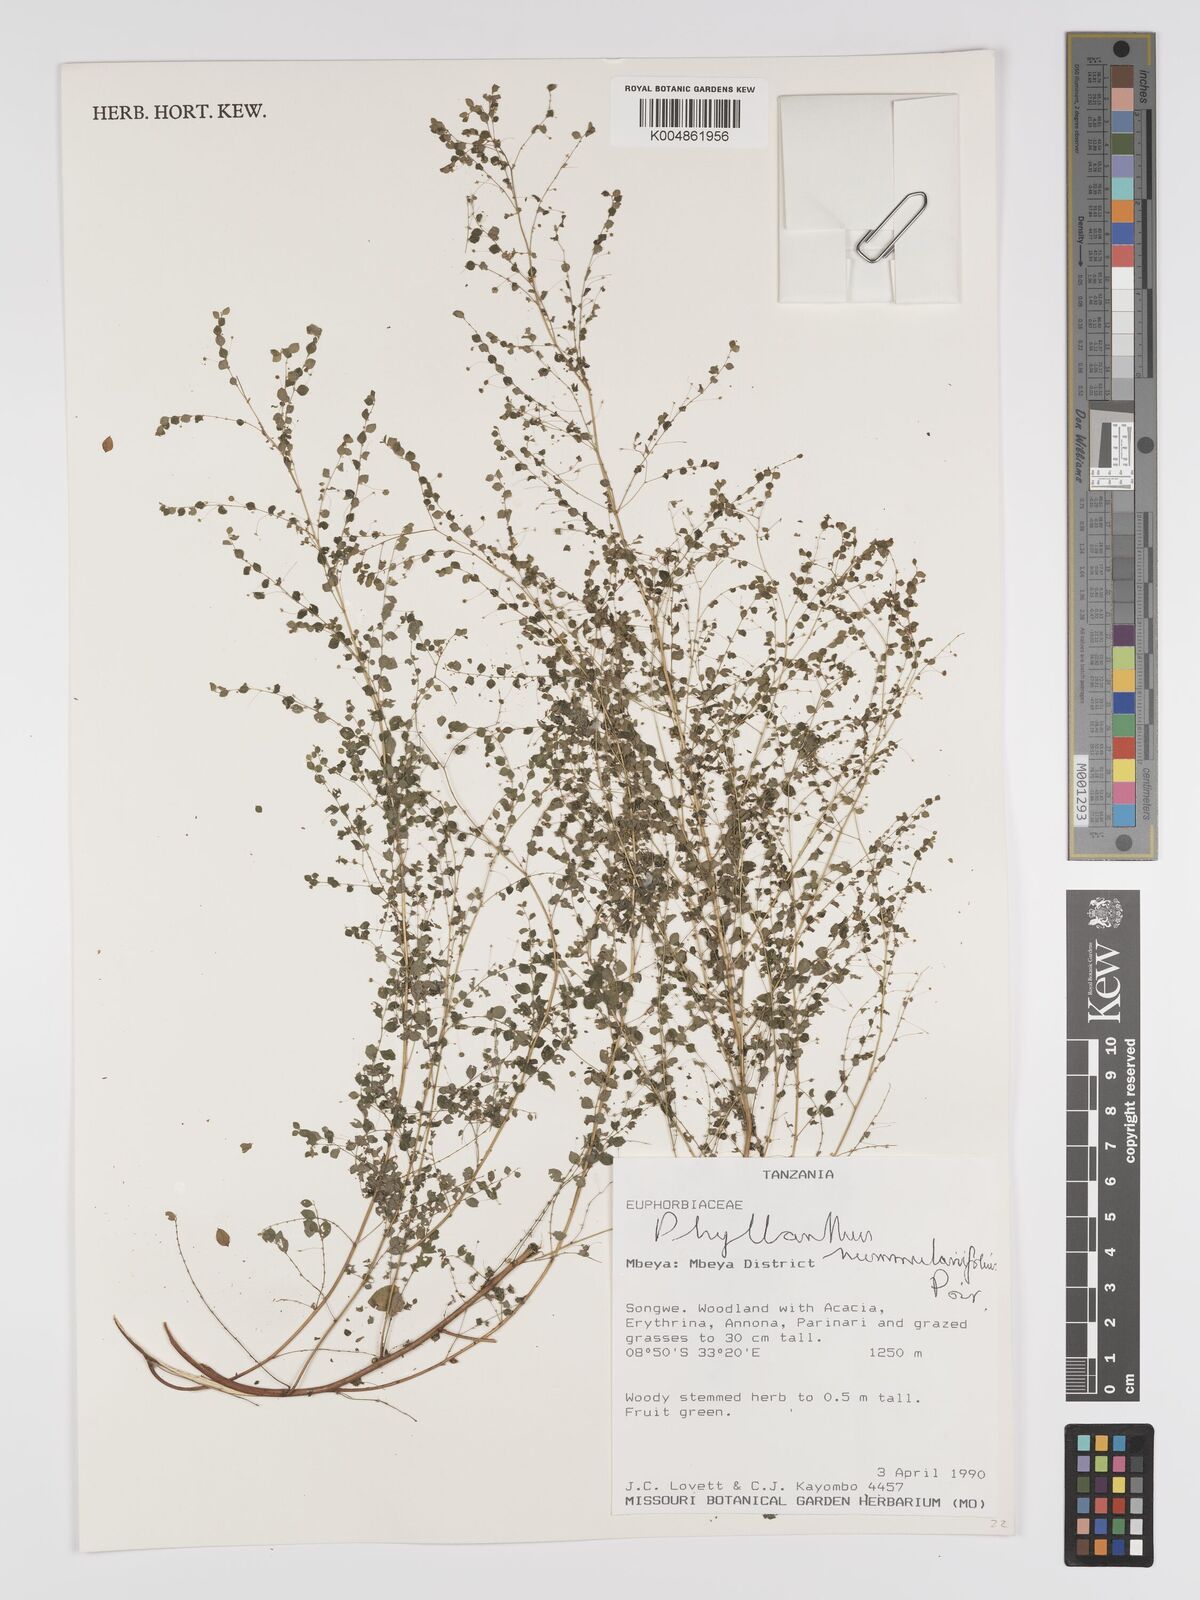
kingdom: Plantae
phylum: Tracheophyta
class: Magnoliopsida
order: Malpighiales
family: Phyllanthaceae
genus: Phyllanthus
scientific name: Phyllanthus nummulariifolius
